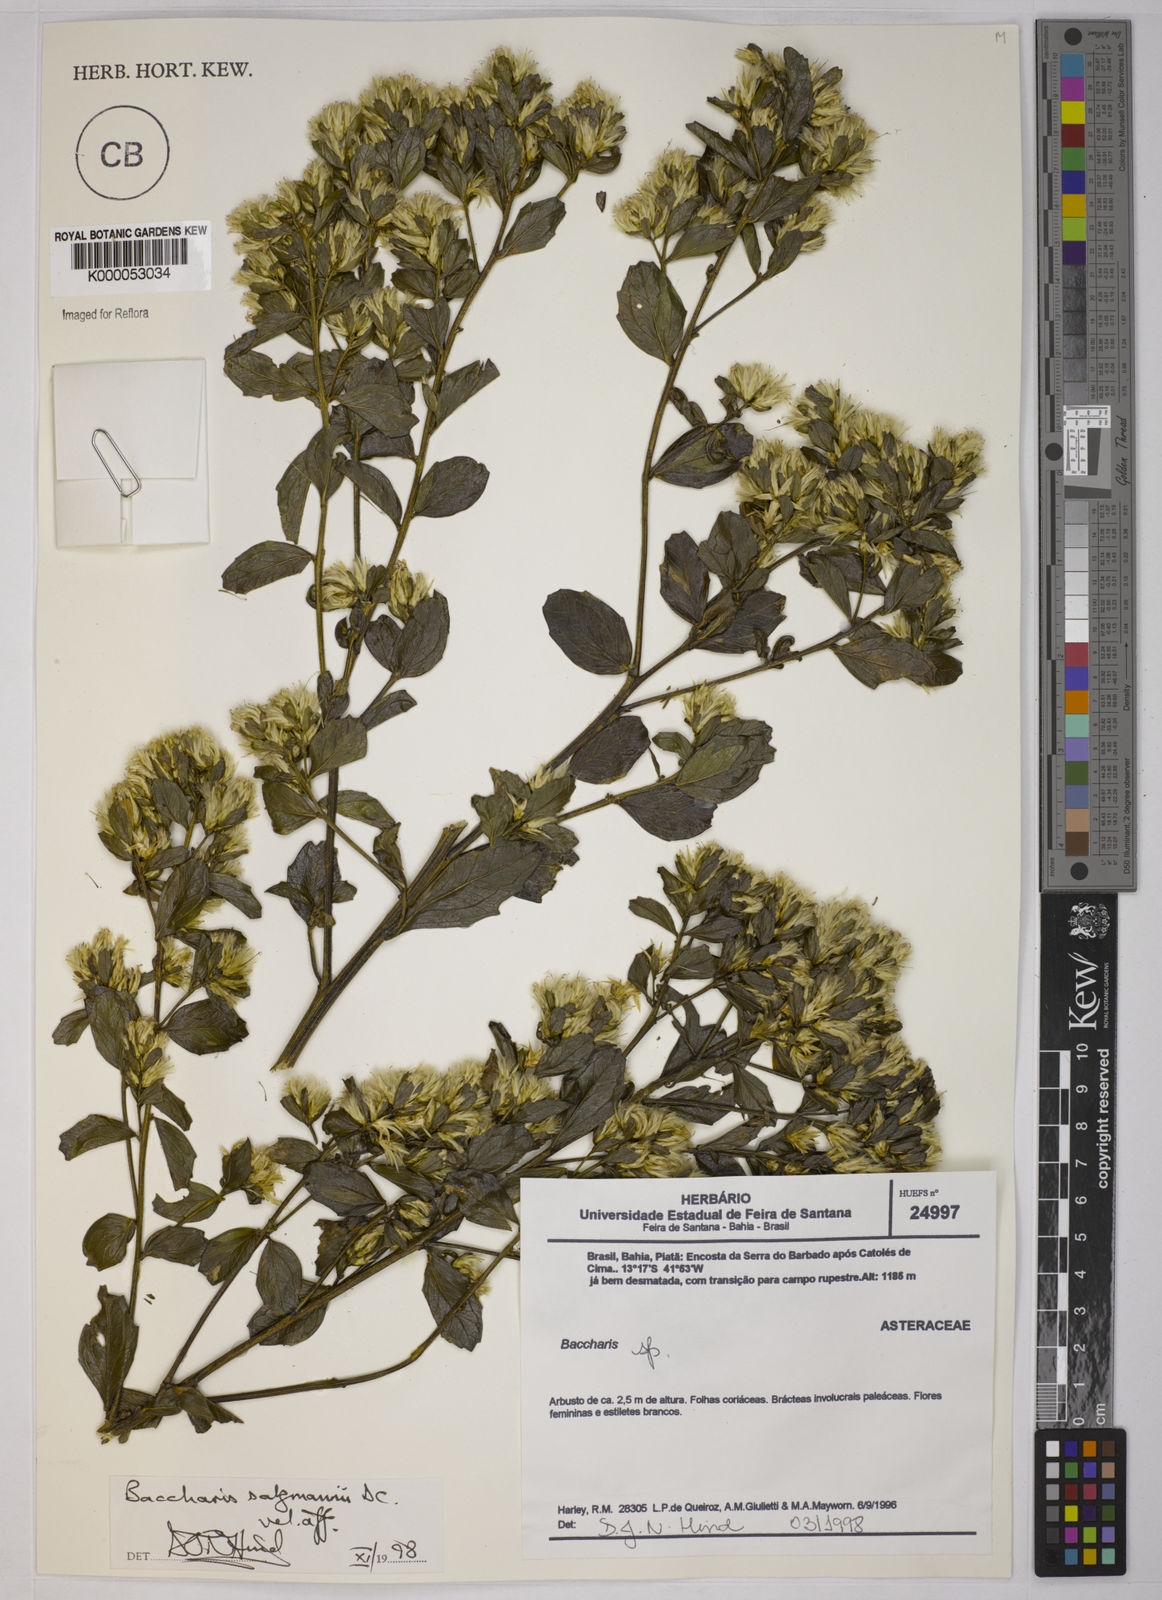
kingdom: Plantae
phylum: Tracheophyta
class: Magnoliopsida
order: Asterales
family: Asteraceae
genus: Baccharis
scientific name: Baccharis retusa
